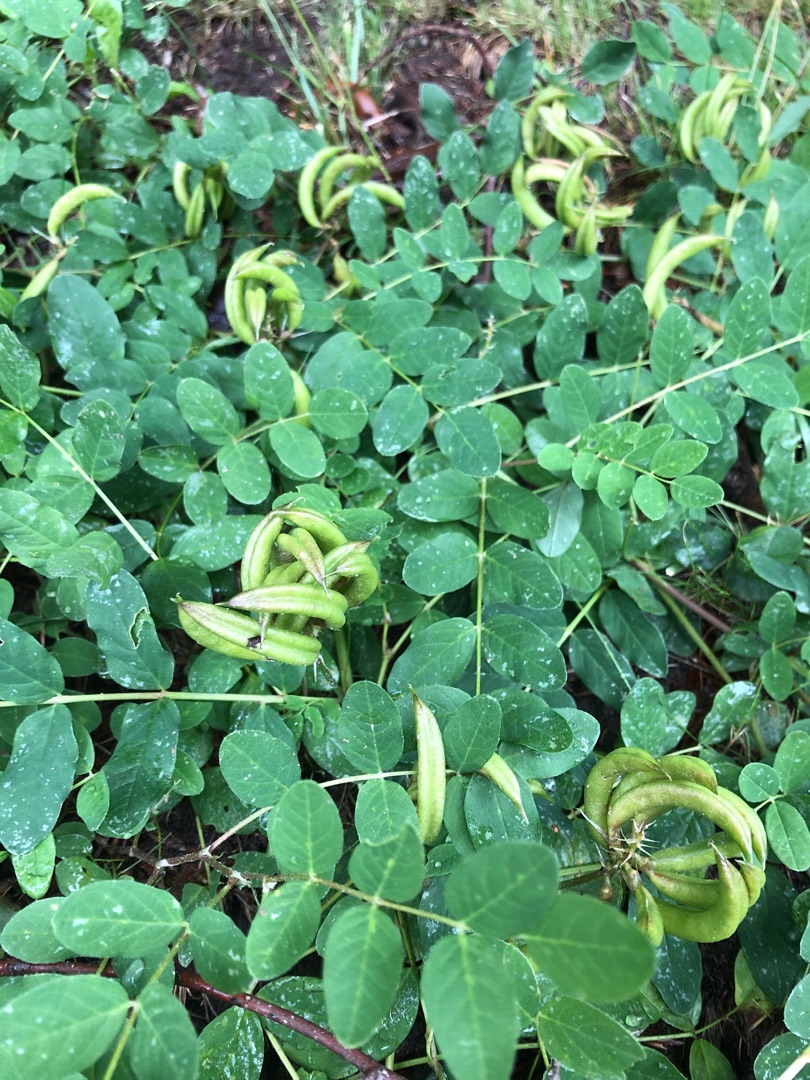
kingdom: Plantae
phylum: Tracheophyta
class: Magnoliopsida
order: Fabales
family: Fabaceae
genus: Astragalus
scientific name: Astragalus glycyphyllos
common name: Sød astragel
